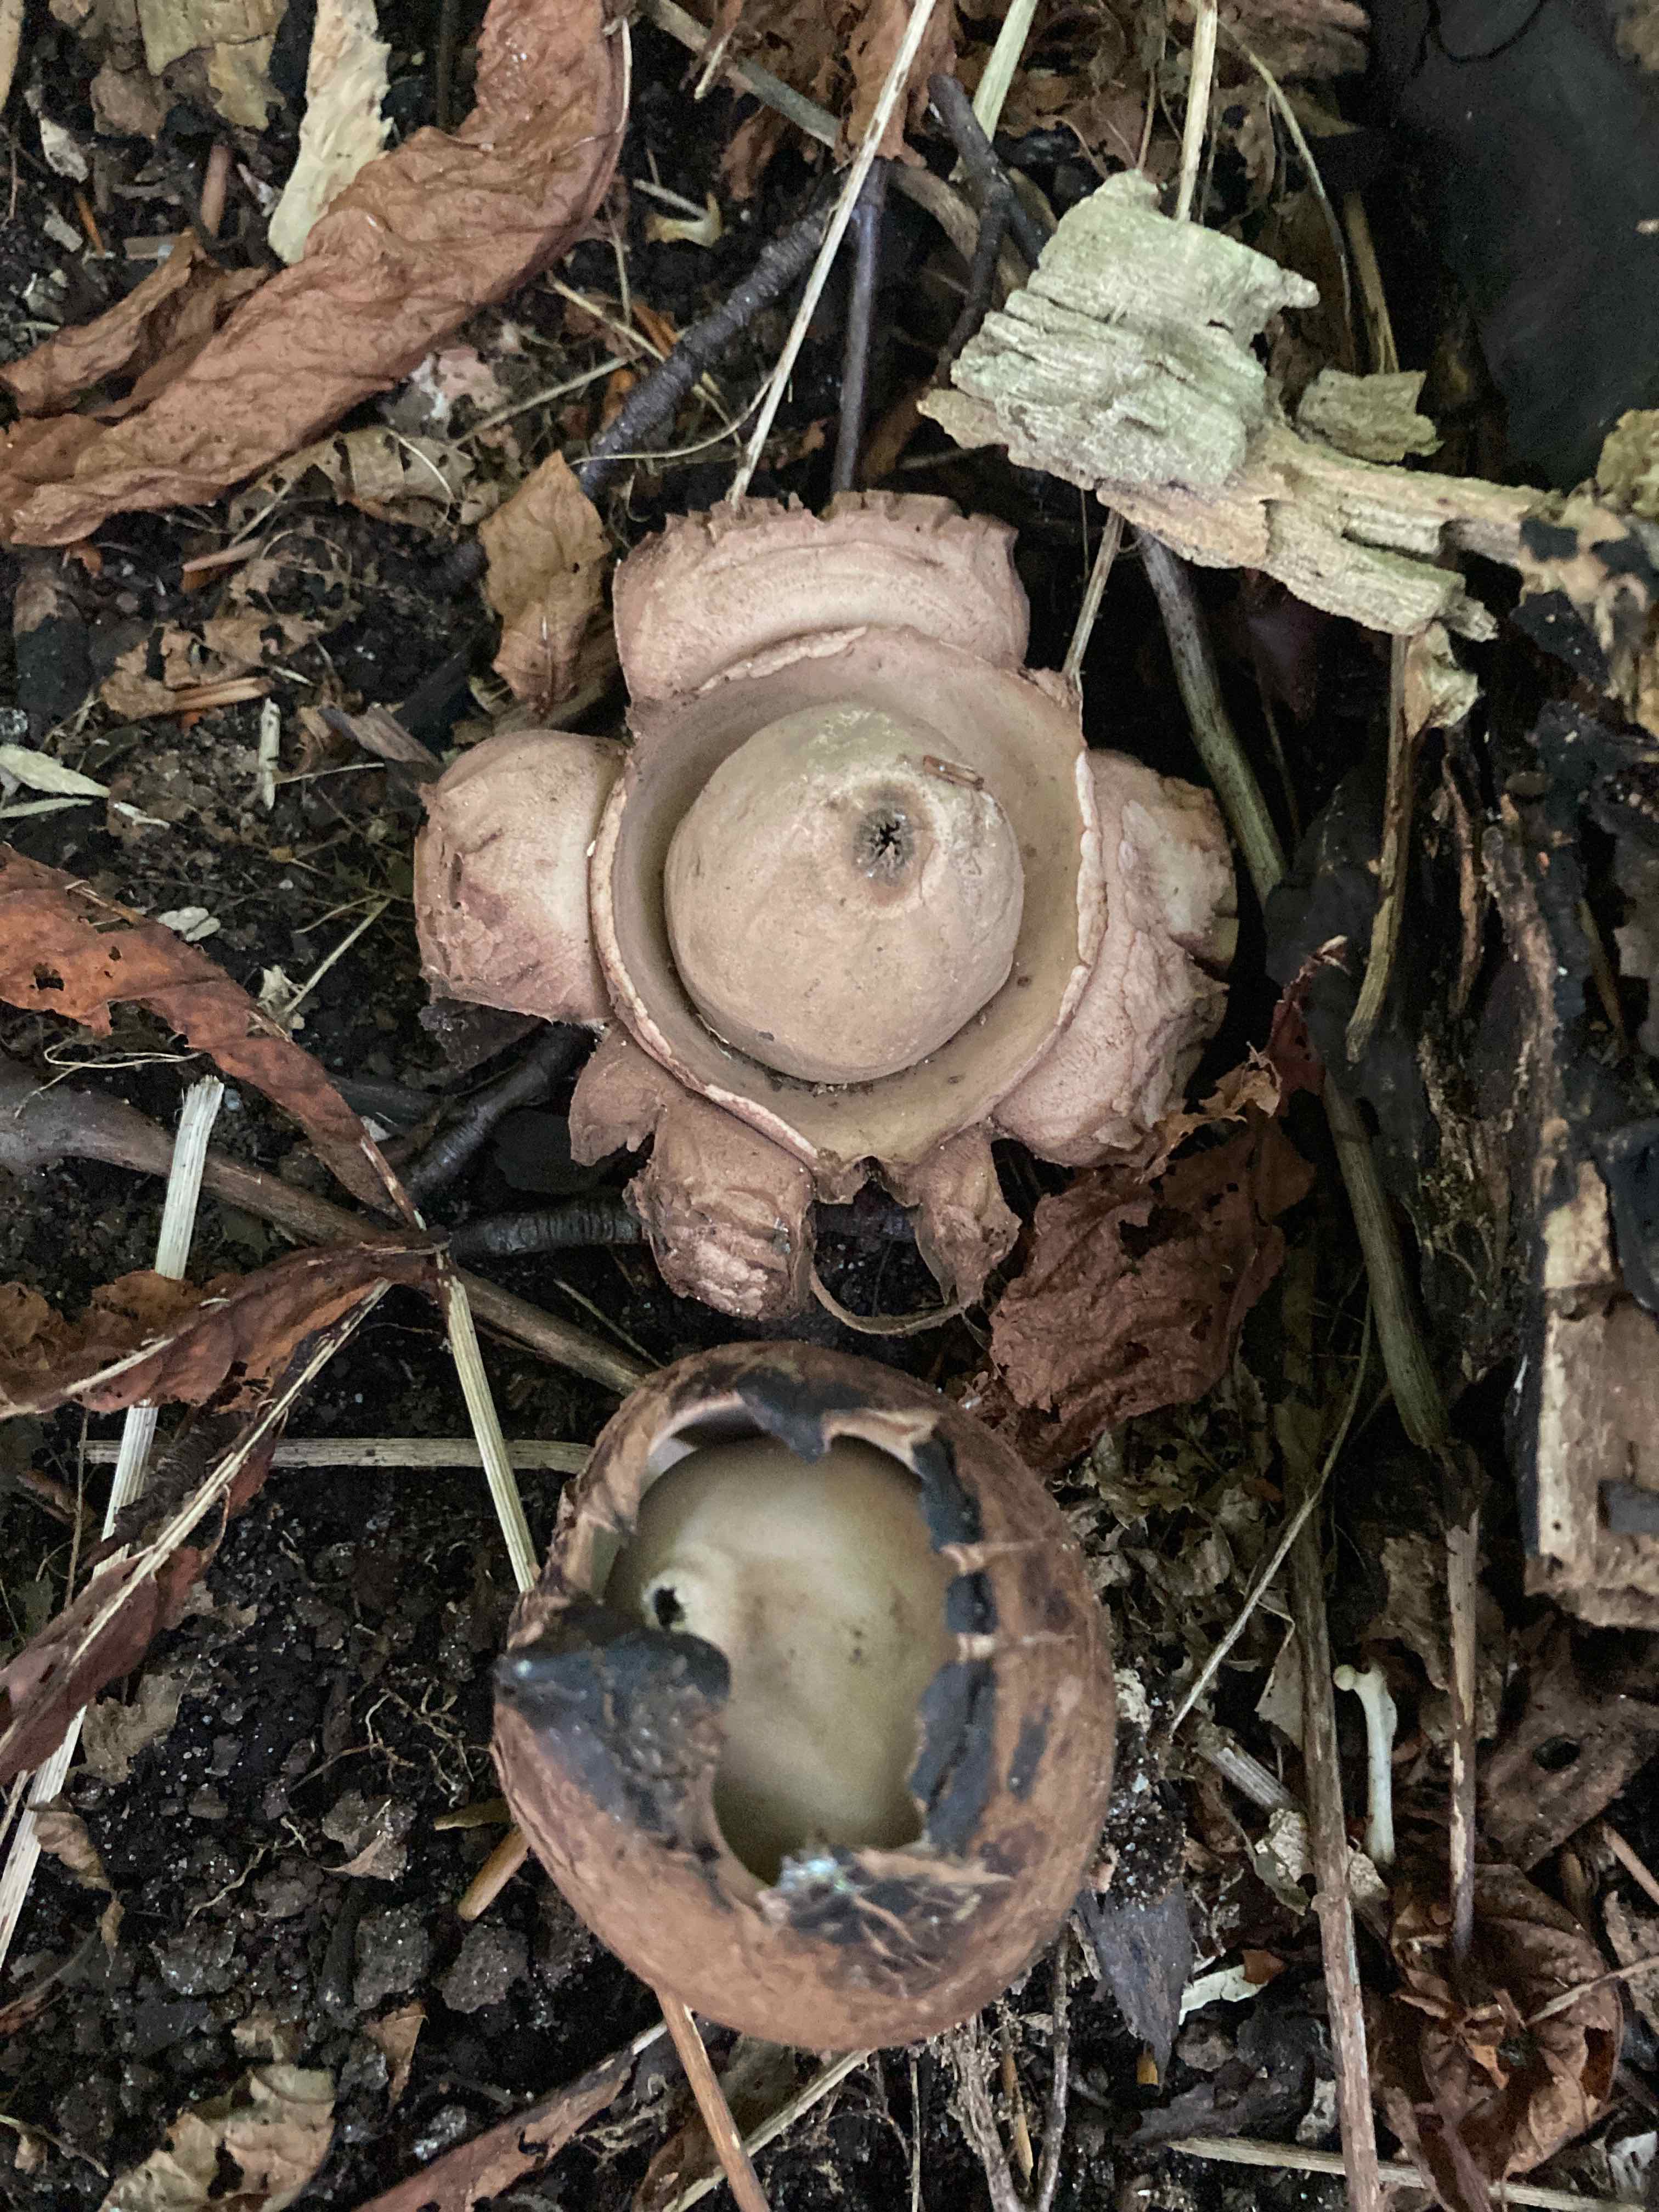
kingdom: Fungi
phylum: Basidiomycota
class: Agaricomycetes
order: Geastrales
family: Geastraceae
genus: Geastrum
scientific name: Geastrum michelianum
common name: kødet stjernebold
